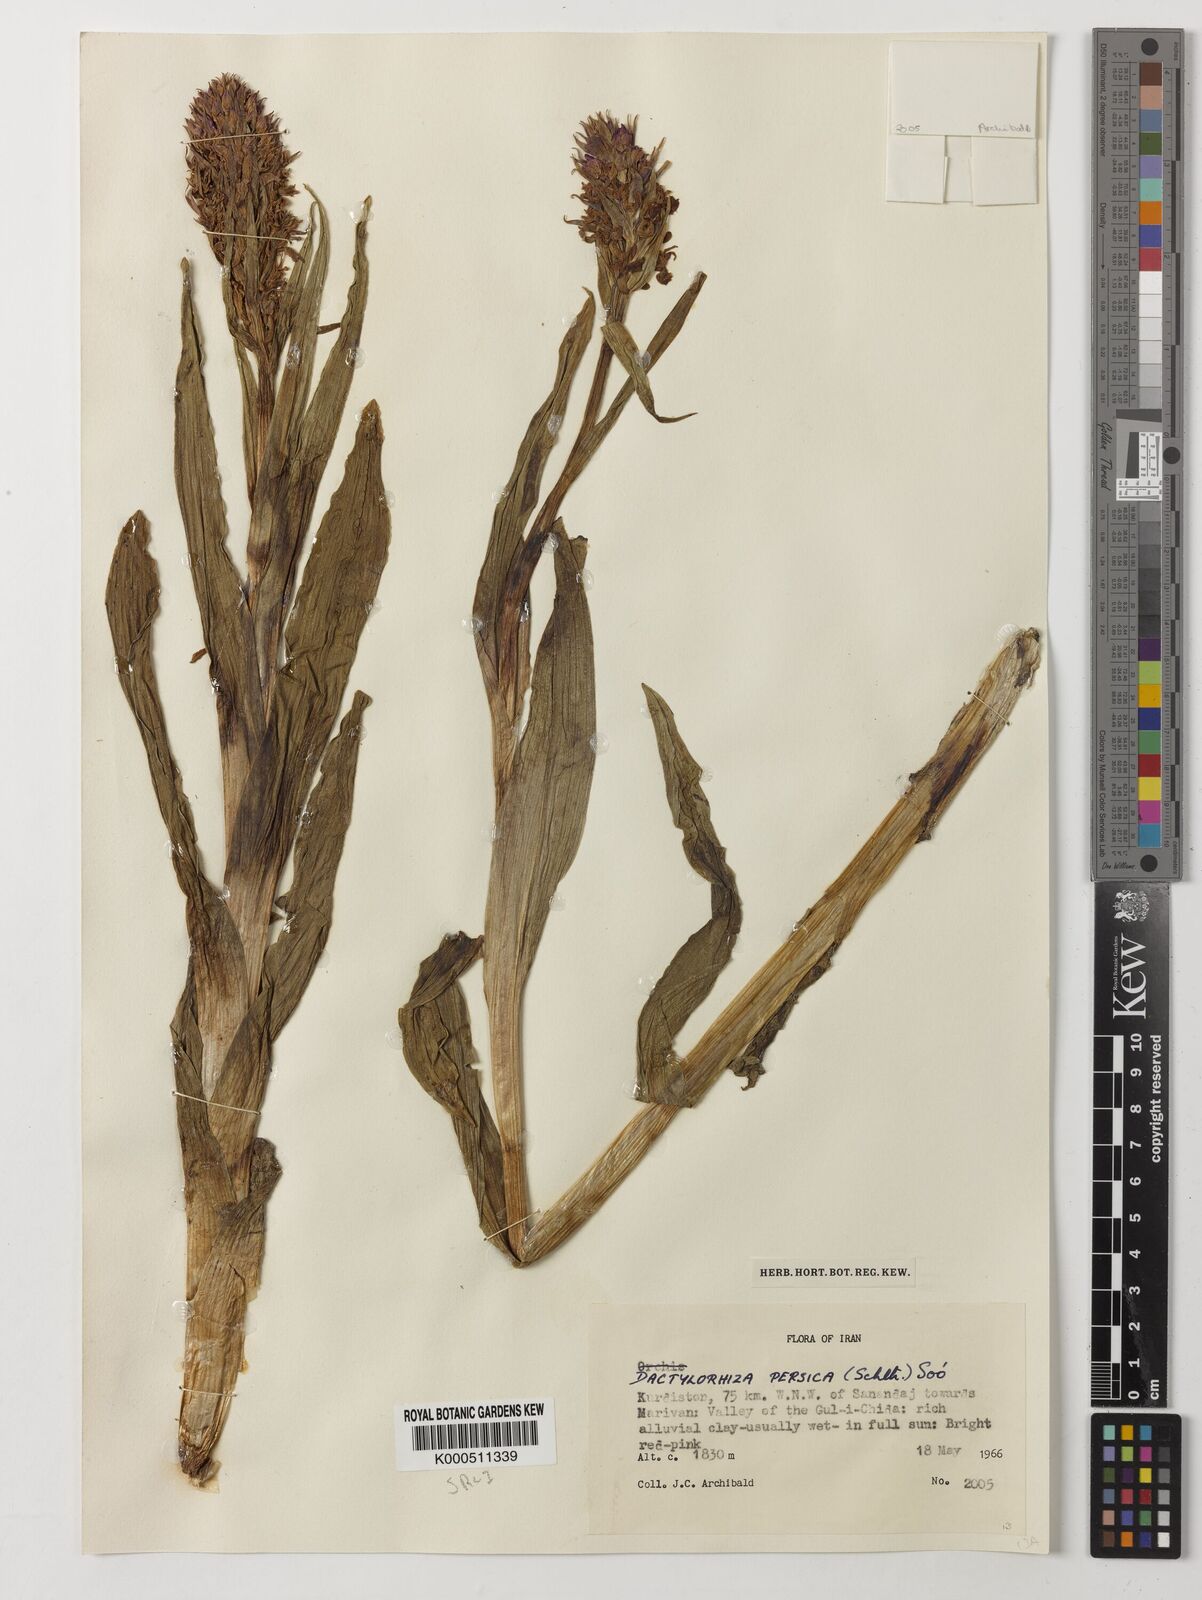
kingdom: Plantae
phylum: Tracheophyta
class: Liliopsida
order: Asparagales
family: Orchidaceae
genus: Dactylorhiza
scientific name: Dactylorhiza
